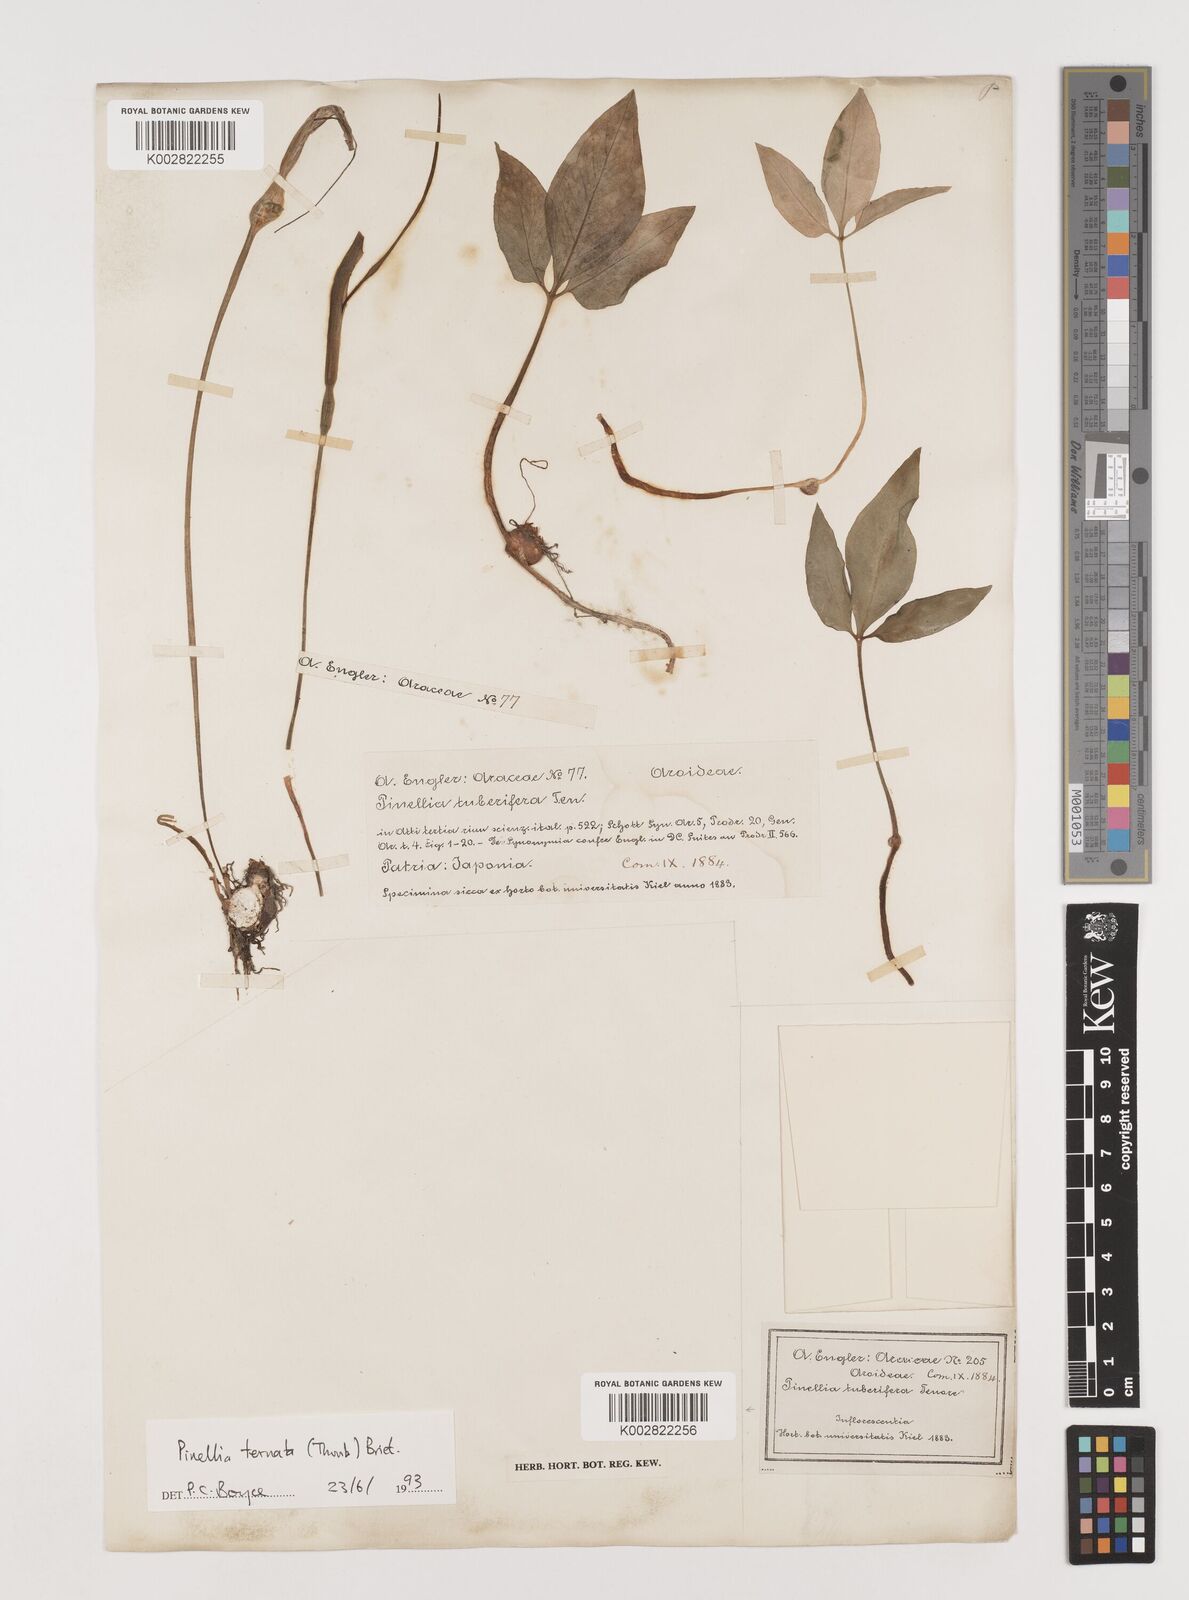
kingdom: Plantae
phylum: Tracheophyta
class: Liliopsida
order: Alismatales
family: Araceae
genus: Pinellia
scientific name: Pinellia ternata
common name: Pinellia
